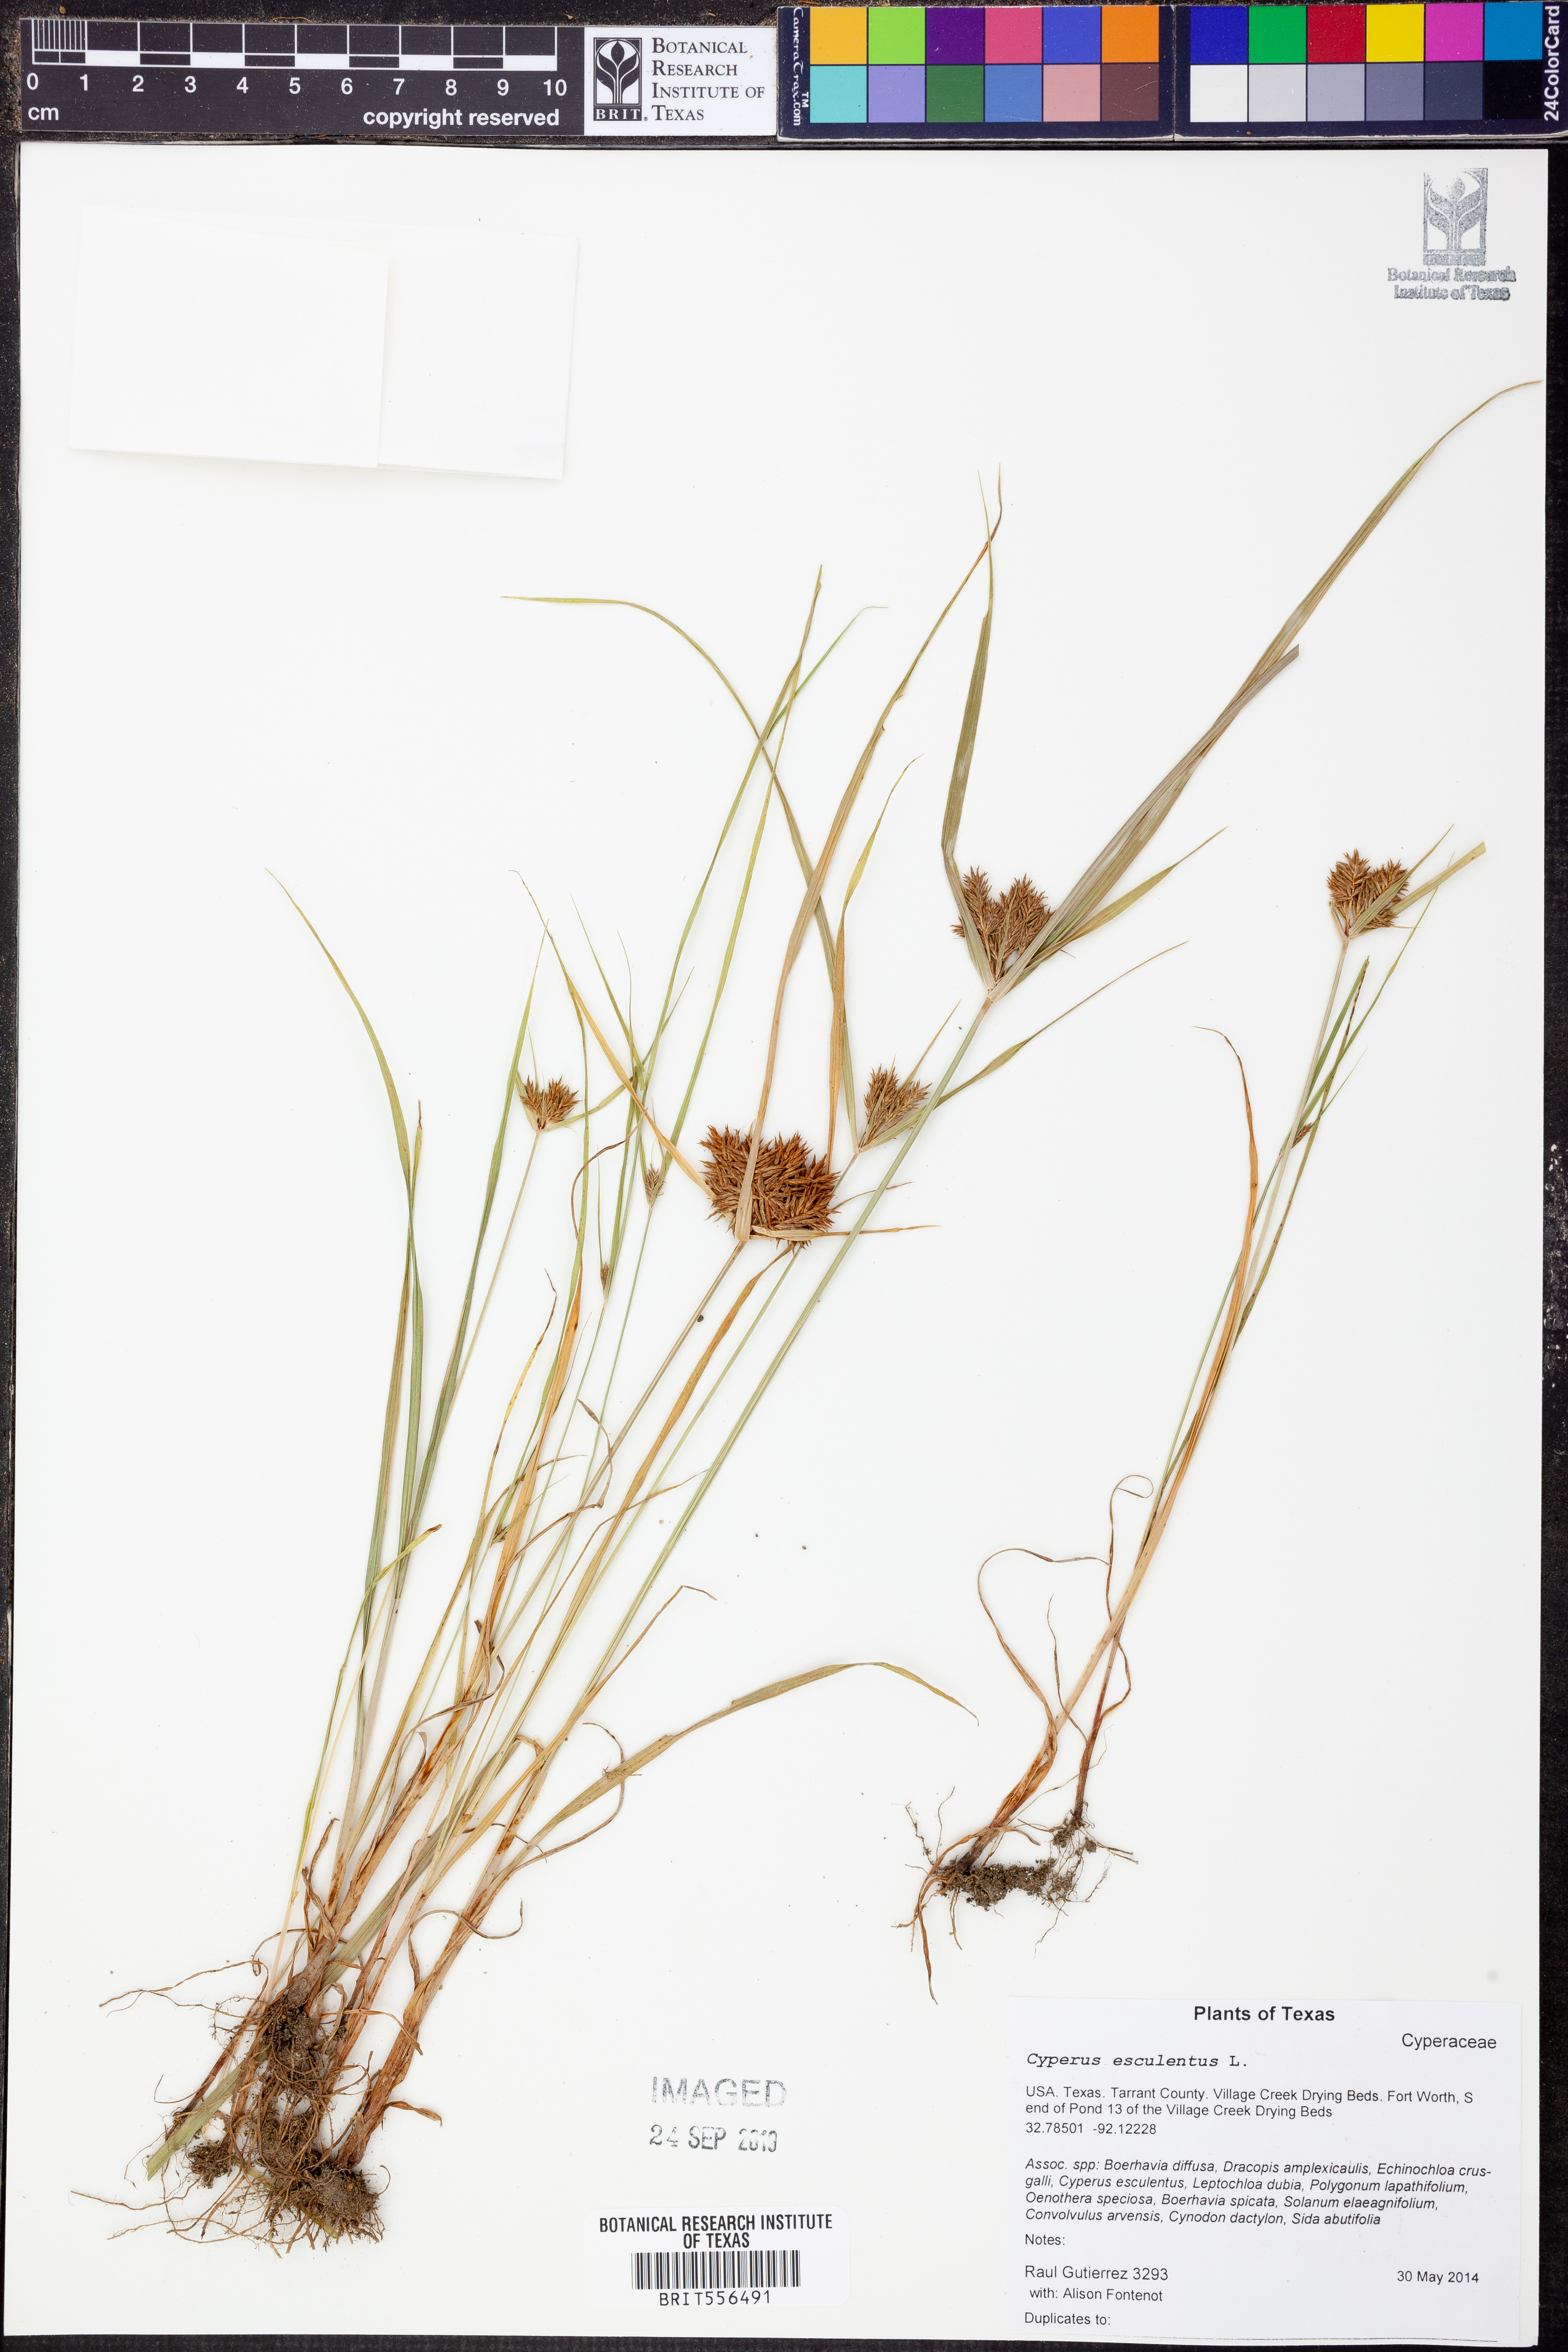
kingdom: Plantae
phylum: Tracheophyta
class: Liliopsida
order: Poales
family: Cyperaceae
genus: Cyperus
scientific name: Cyperus esculentus
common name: Yellow nutsedge
